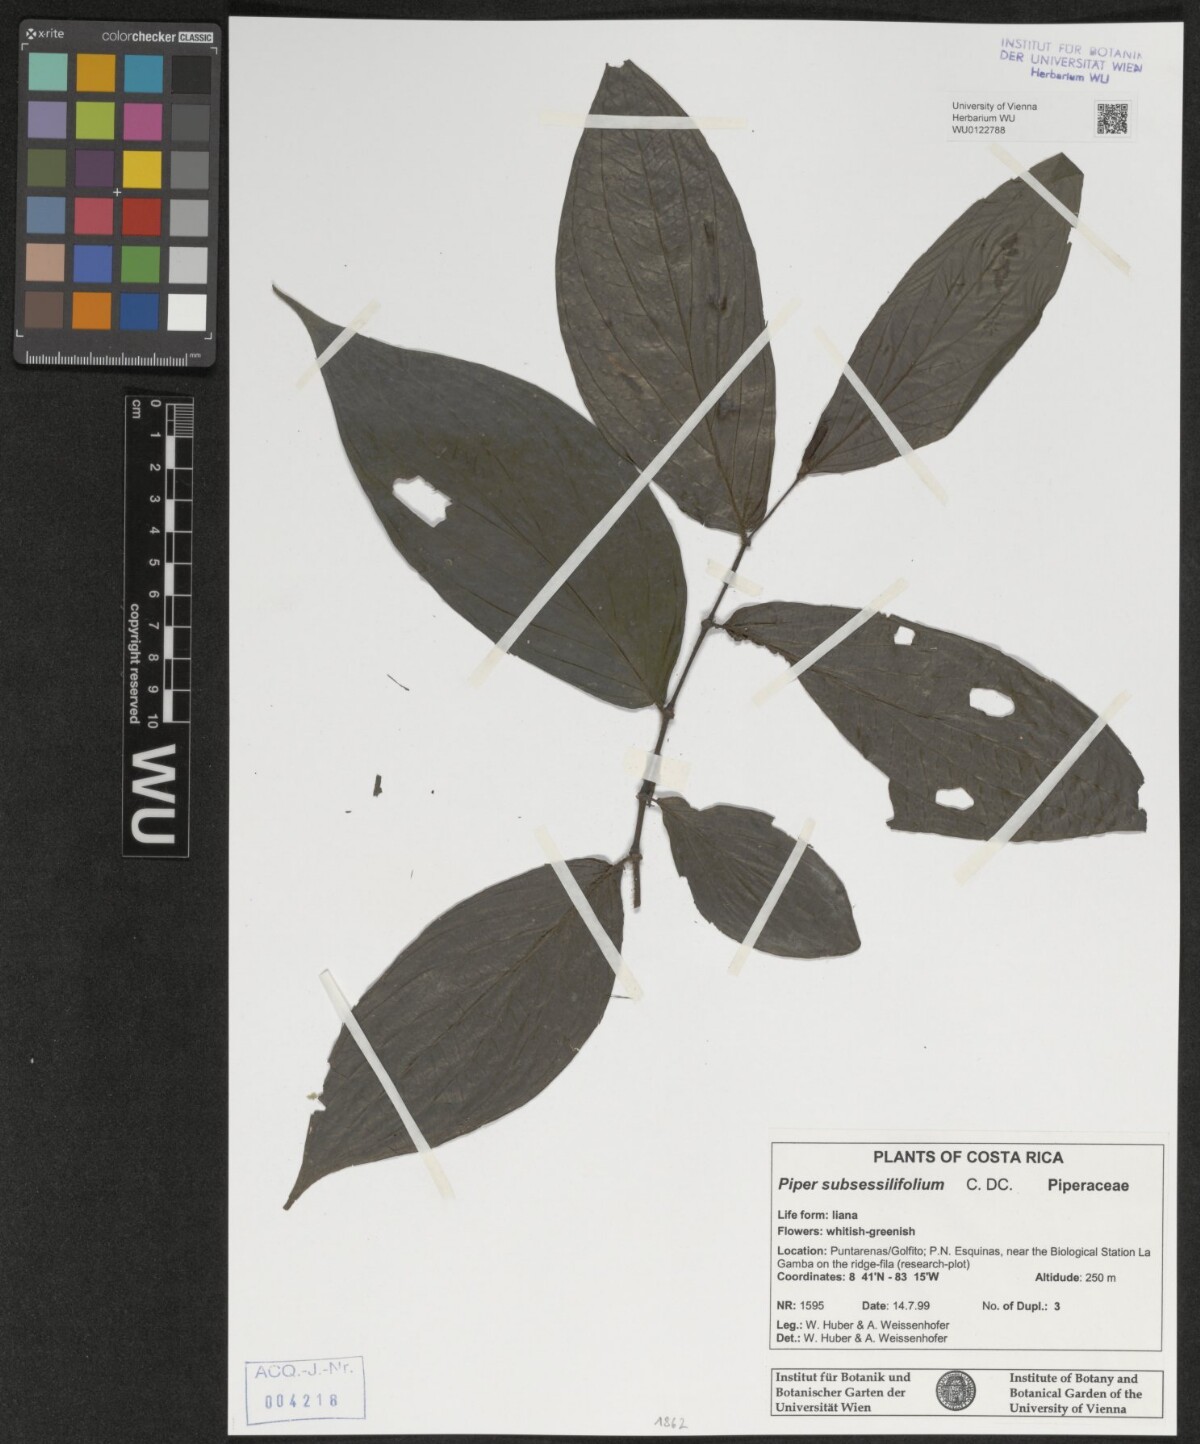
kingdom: Plantae
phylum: Tracheophyta
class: Magnoliopsida
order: Piperales
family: Piperaceae
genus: Piper
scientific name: Piper subsessilifolium
